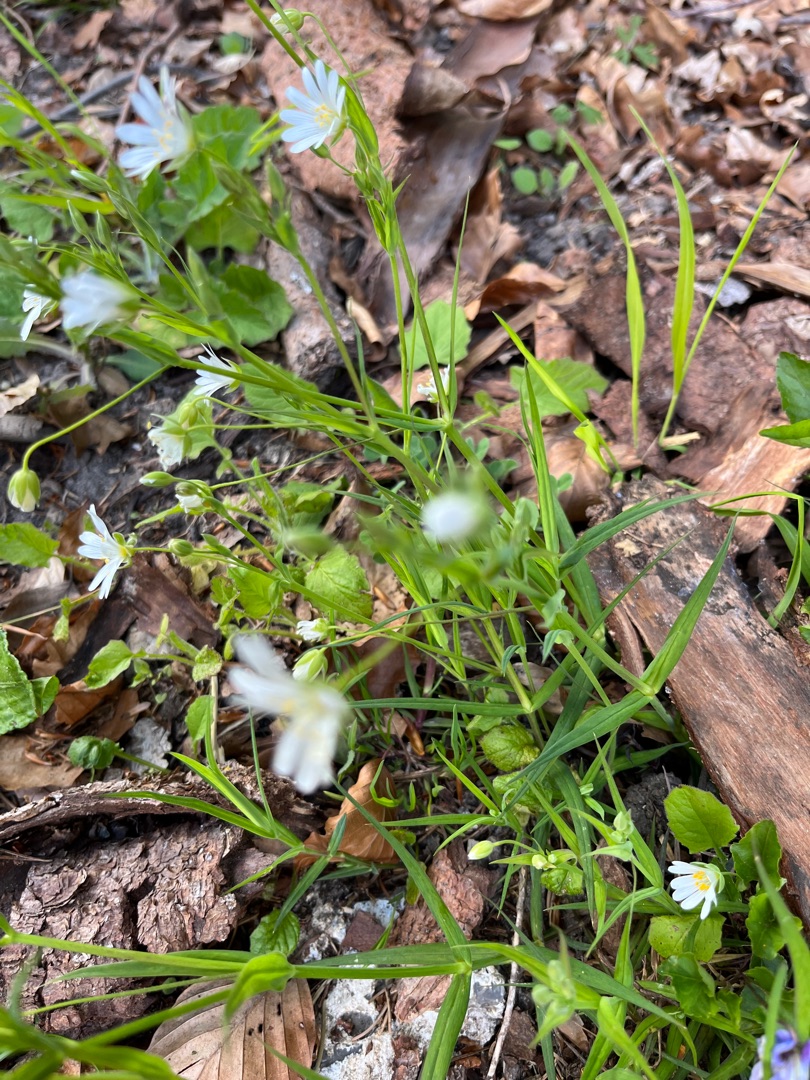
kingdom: Plantae
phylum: Tracheophyta
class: Magnoliopsida
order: Caryophyllales
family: Caryophyllaceae
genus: Rabelera
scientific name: Rabelera holostea
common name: Stor fladstjerne
